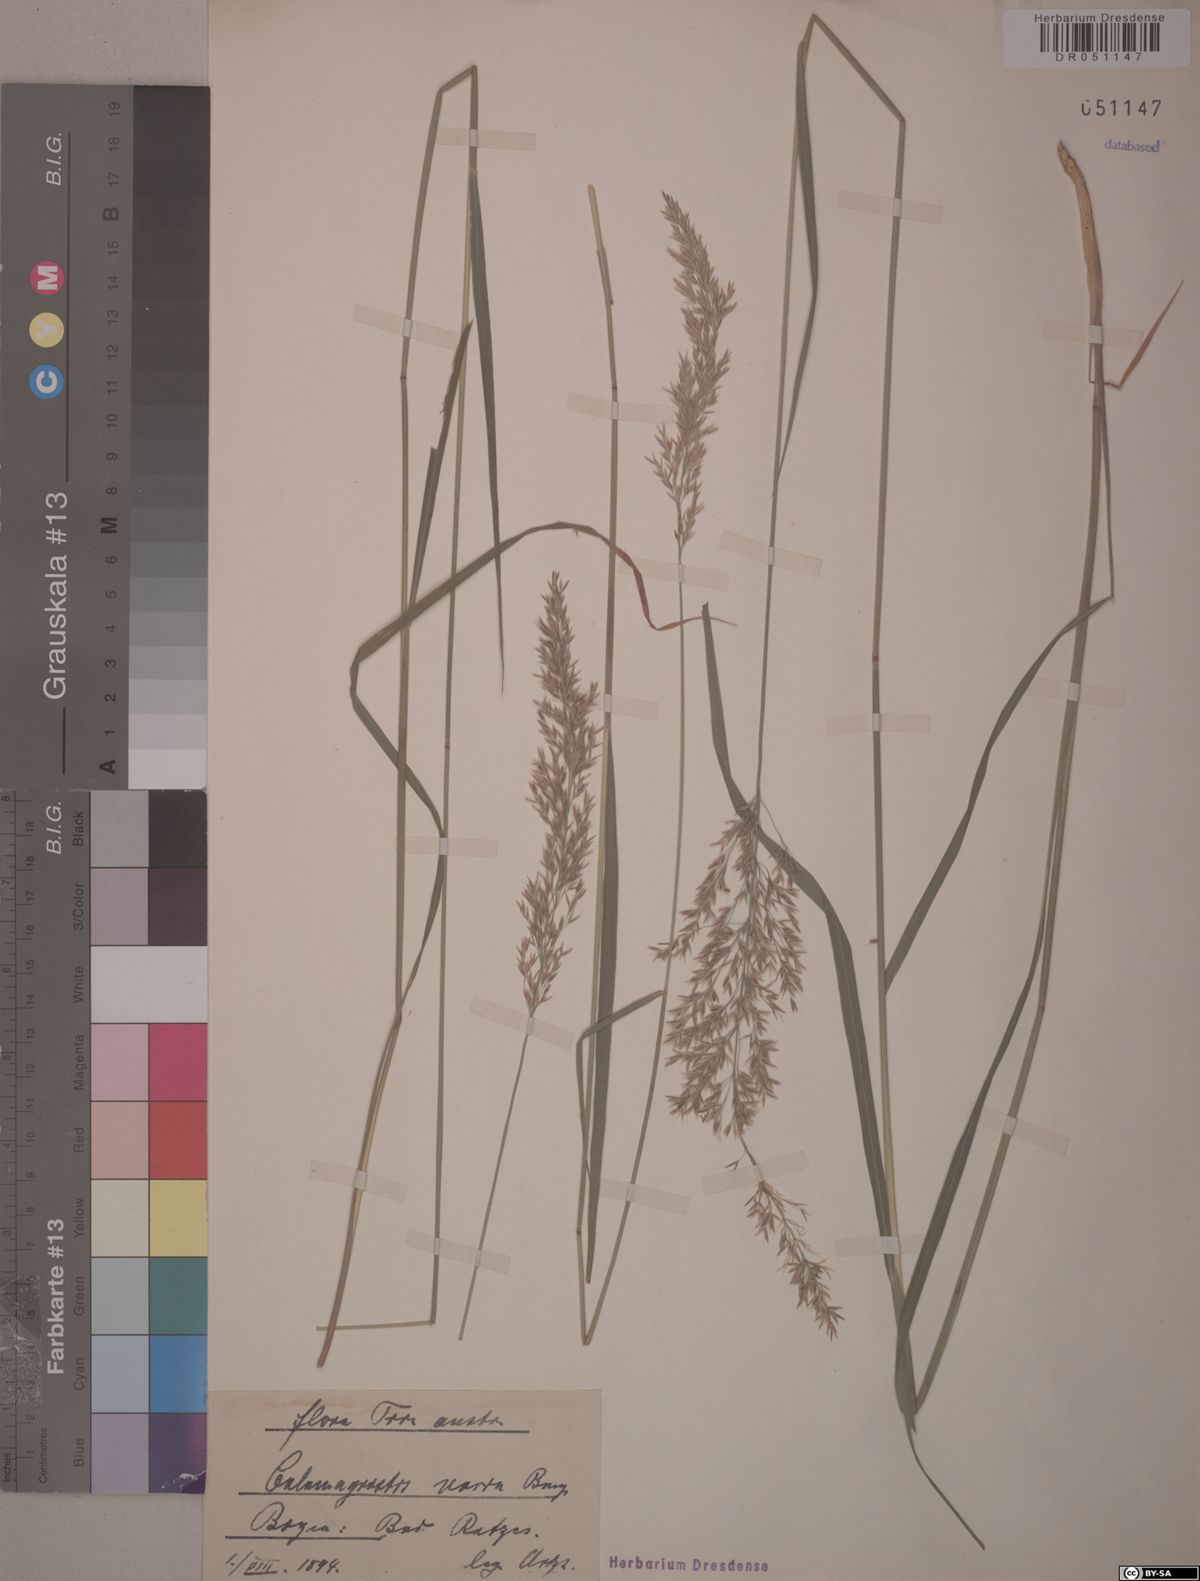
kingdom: Plantae
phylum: Tracheophyta
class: Liliopsida
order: Poales
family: Poaceae
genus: Calamagrostis
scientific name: Calamagrostis varia
